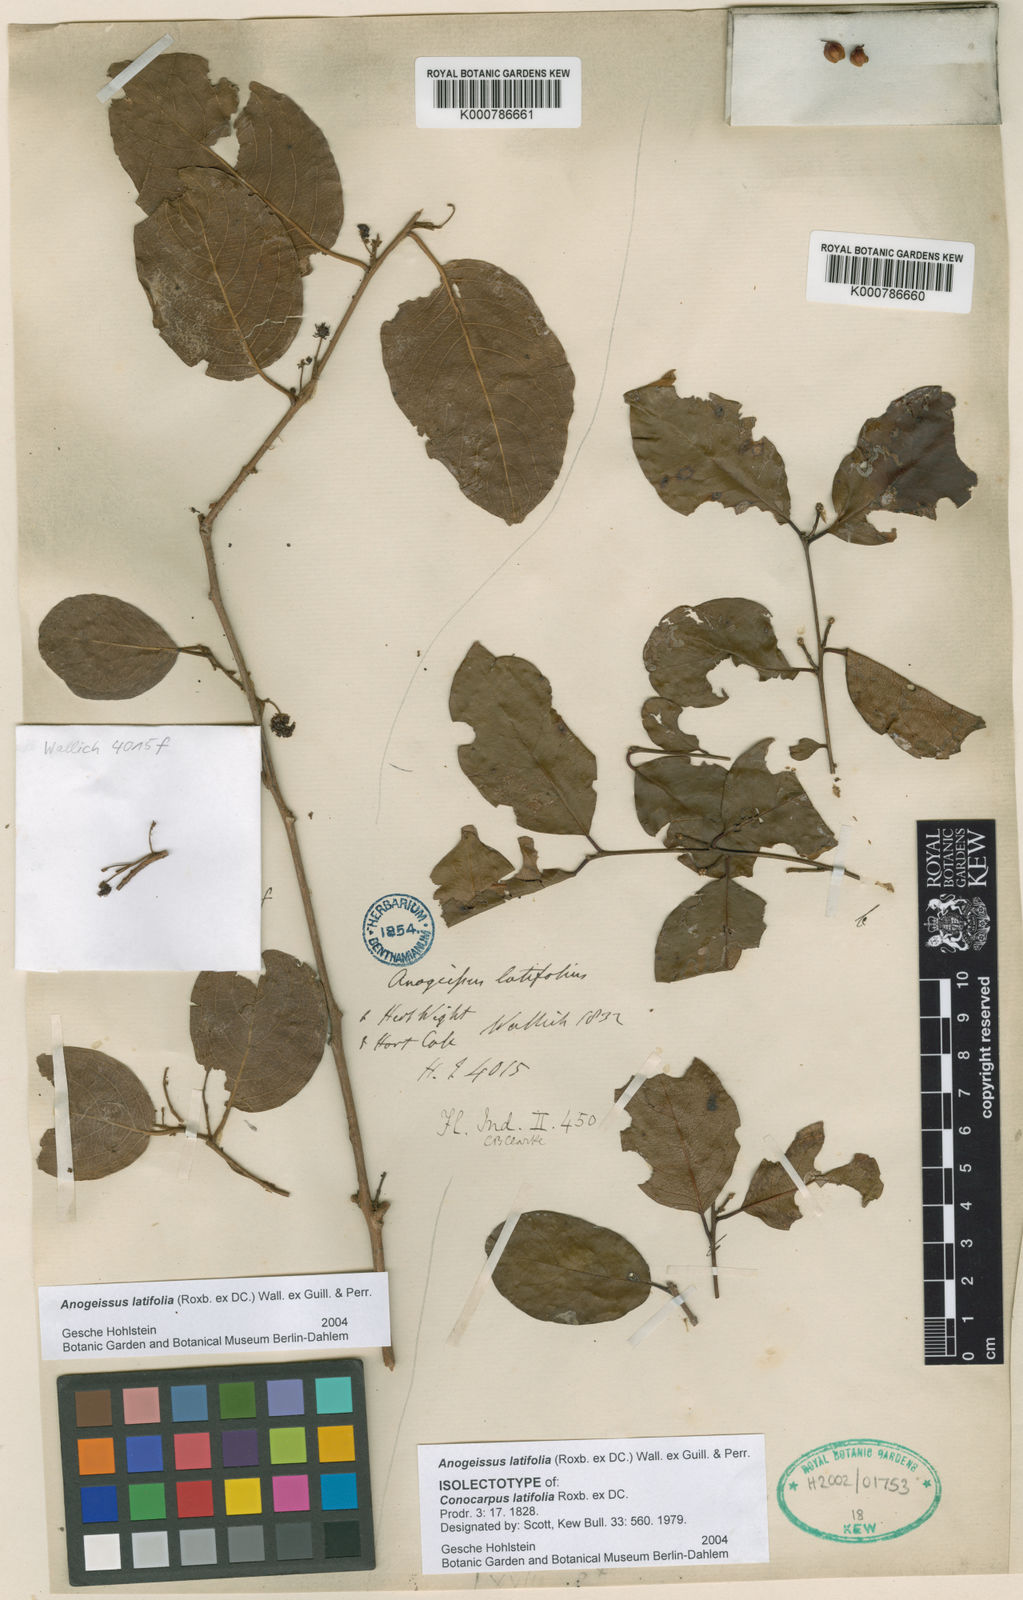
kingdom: Plantae
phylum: Tracheophyta
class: Magnoliopsida
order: Myrtales
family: Combretaceae
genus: Terminalia
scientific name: Terminalia anogeissiana
